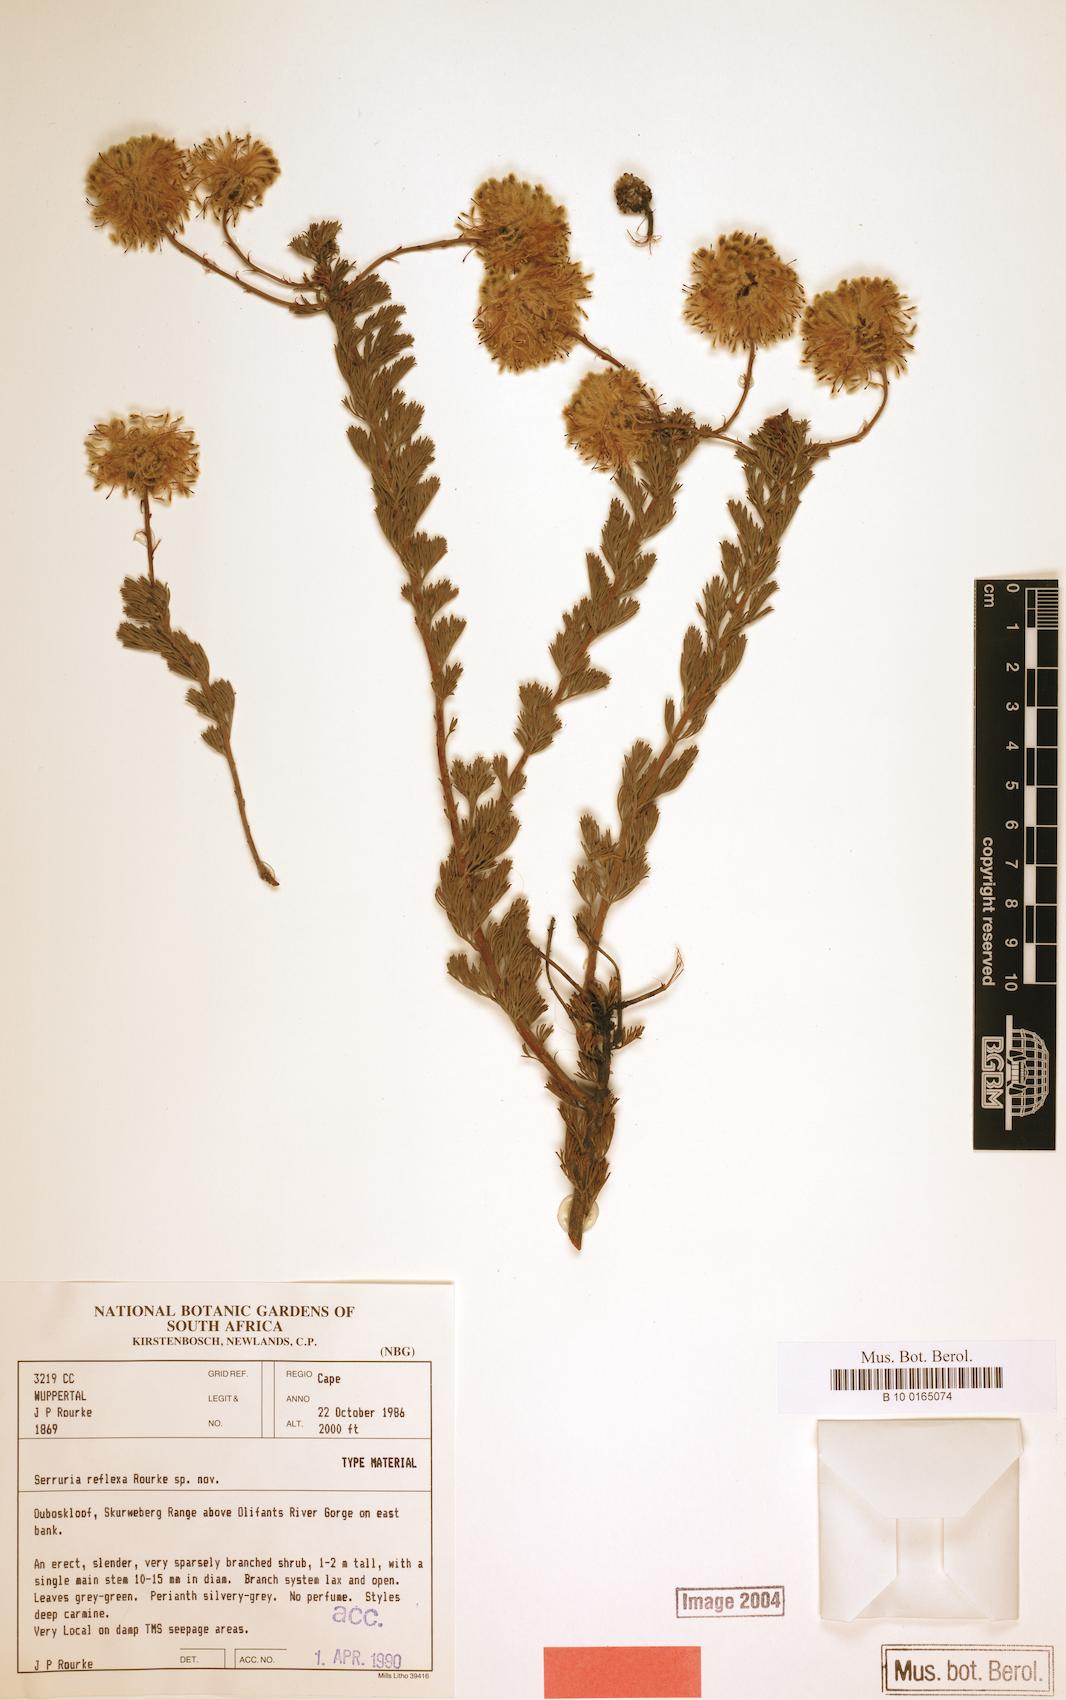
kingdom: Plantae
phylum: Tracheophyta
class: Magnoliopsida
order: Proteales
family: Proteaceae
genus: Serruria
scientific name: Serruria reflexa
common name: Milky spiderhead
